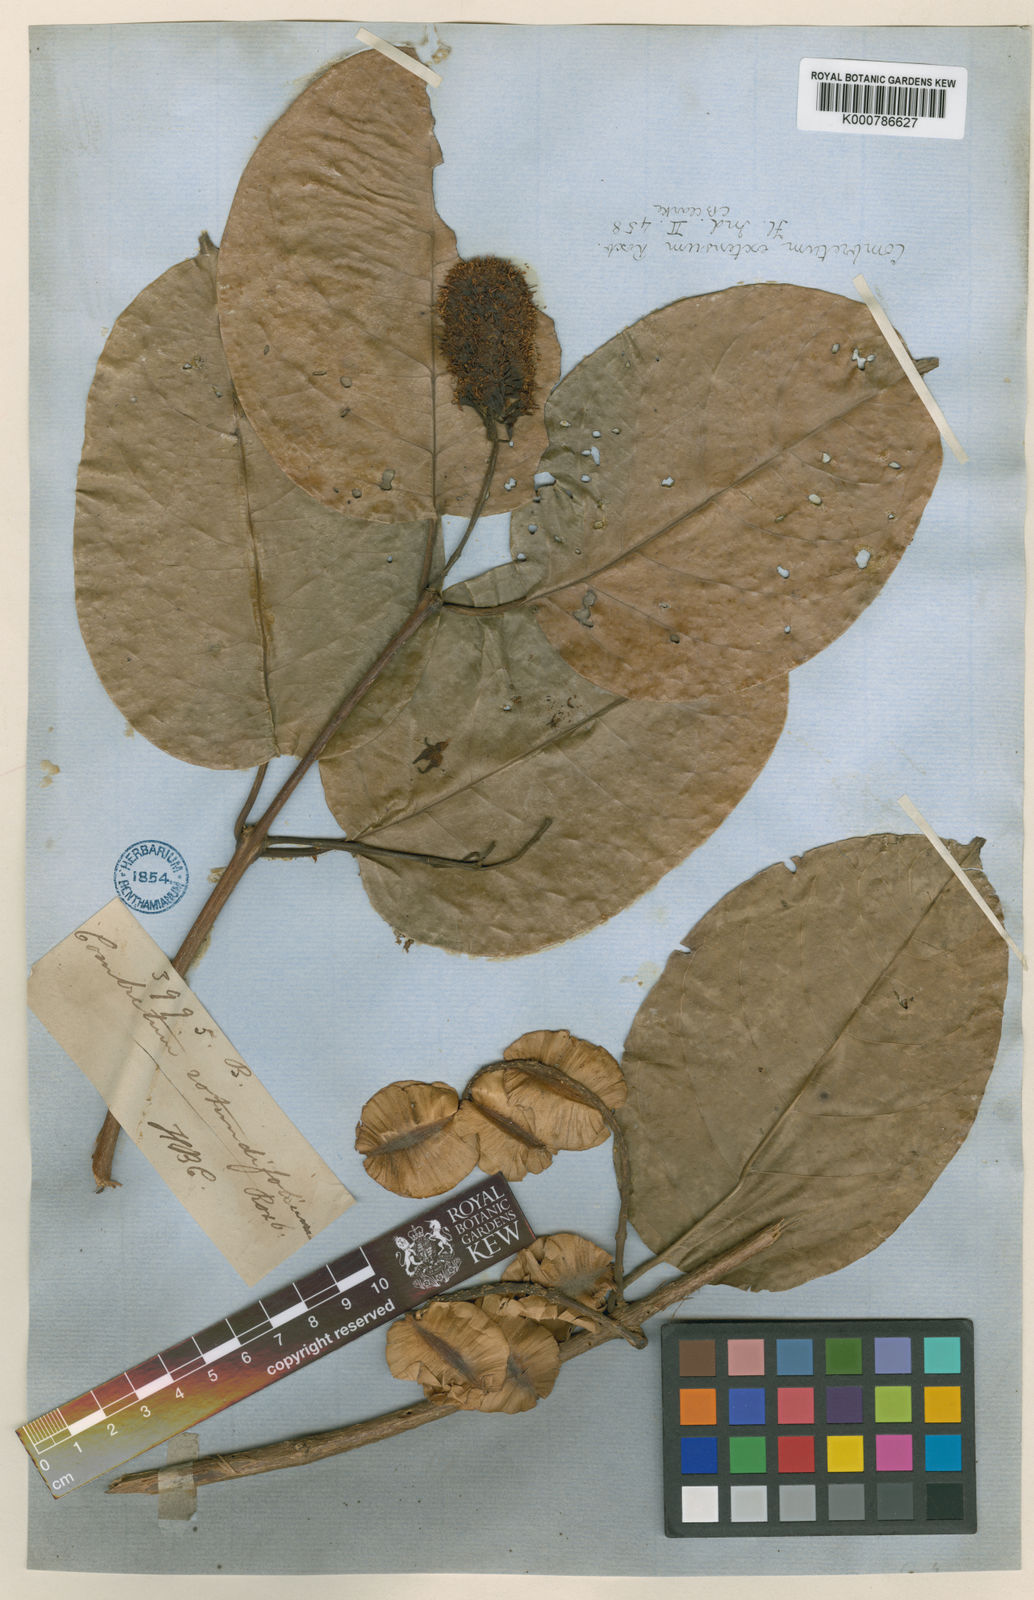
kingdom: Plantae
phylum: Tracheophyta
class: Magnoliopsida
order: Myrtales
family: Combretaceae
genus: Combretum
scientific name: Combretum latifolium
